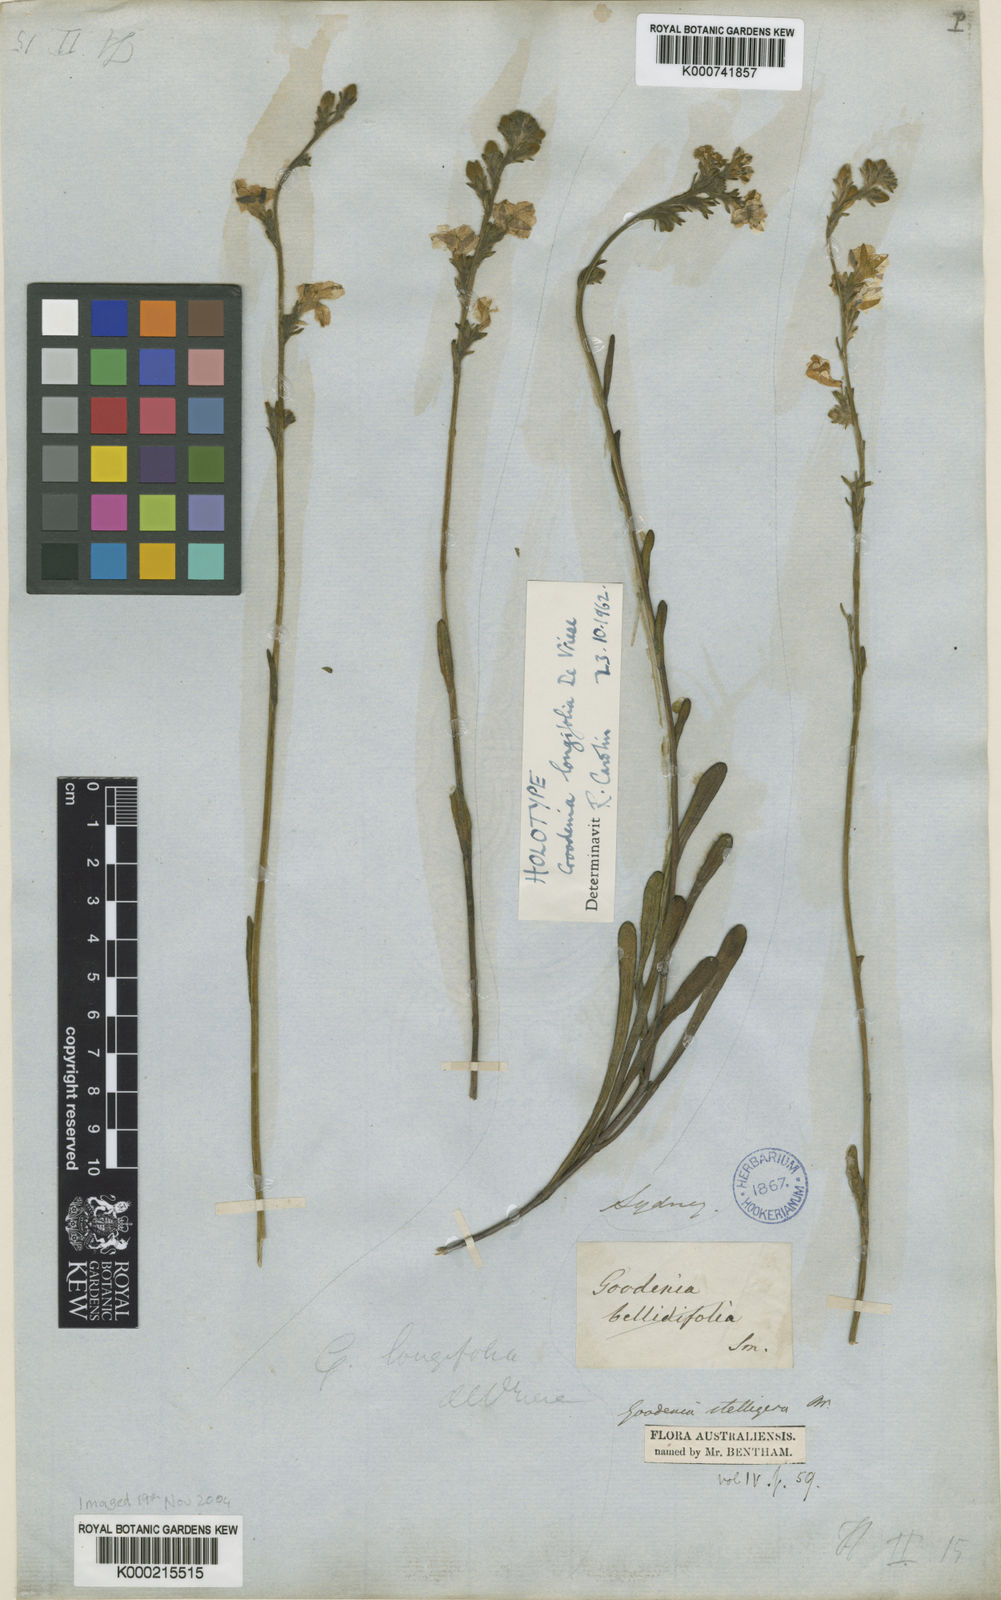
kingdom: Plantae
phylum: Tracheophyta
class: Magnoliopsida
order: Asterales
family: Goodeniaceae
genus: Goodenia
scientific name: Goodenia stelligera
